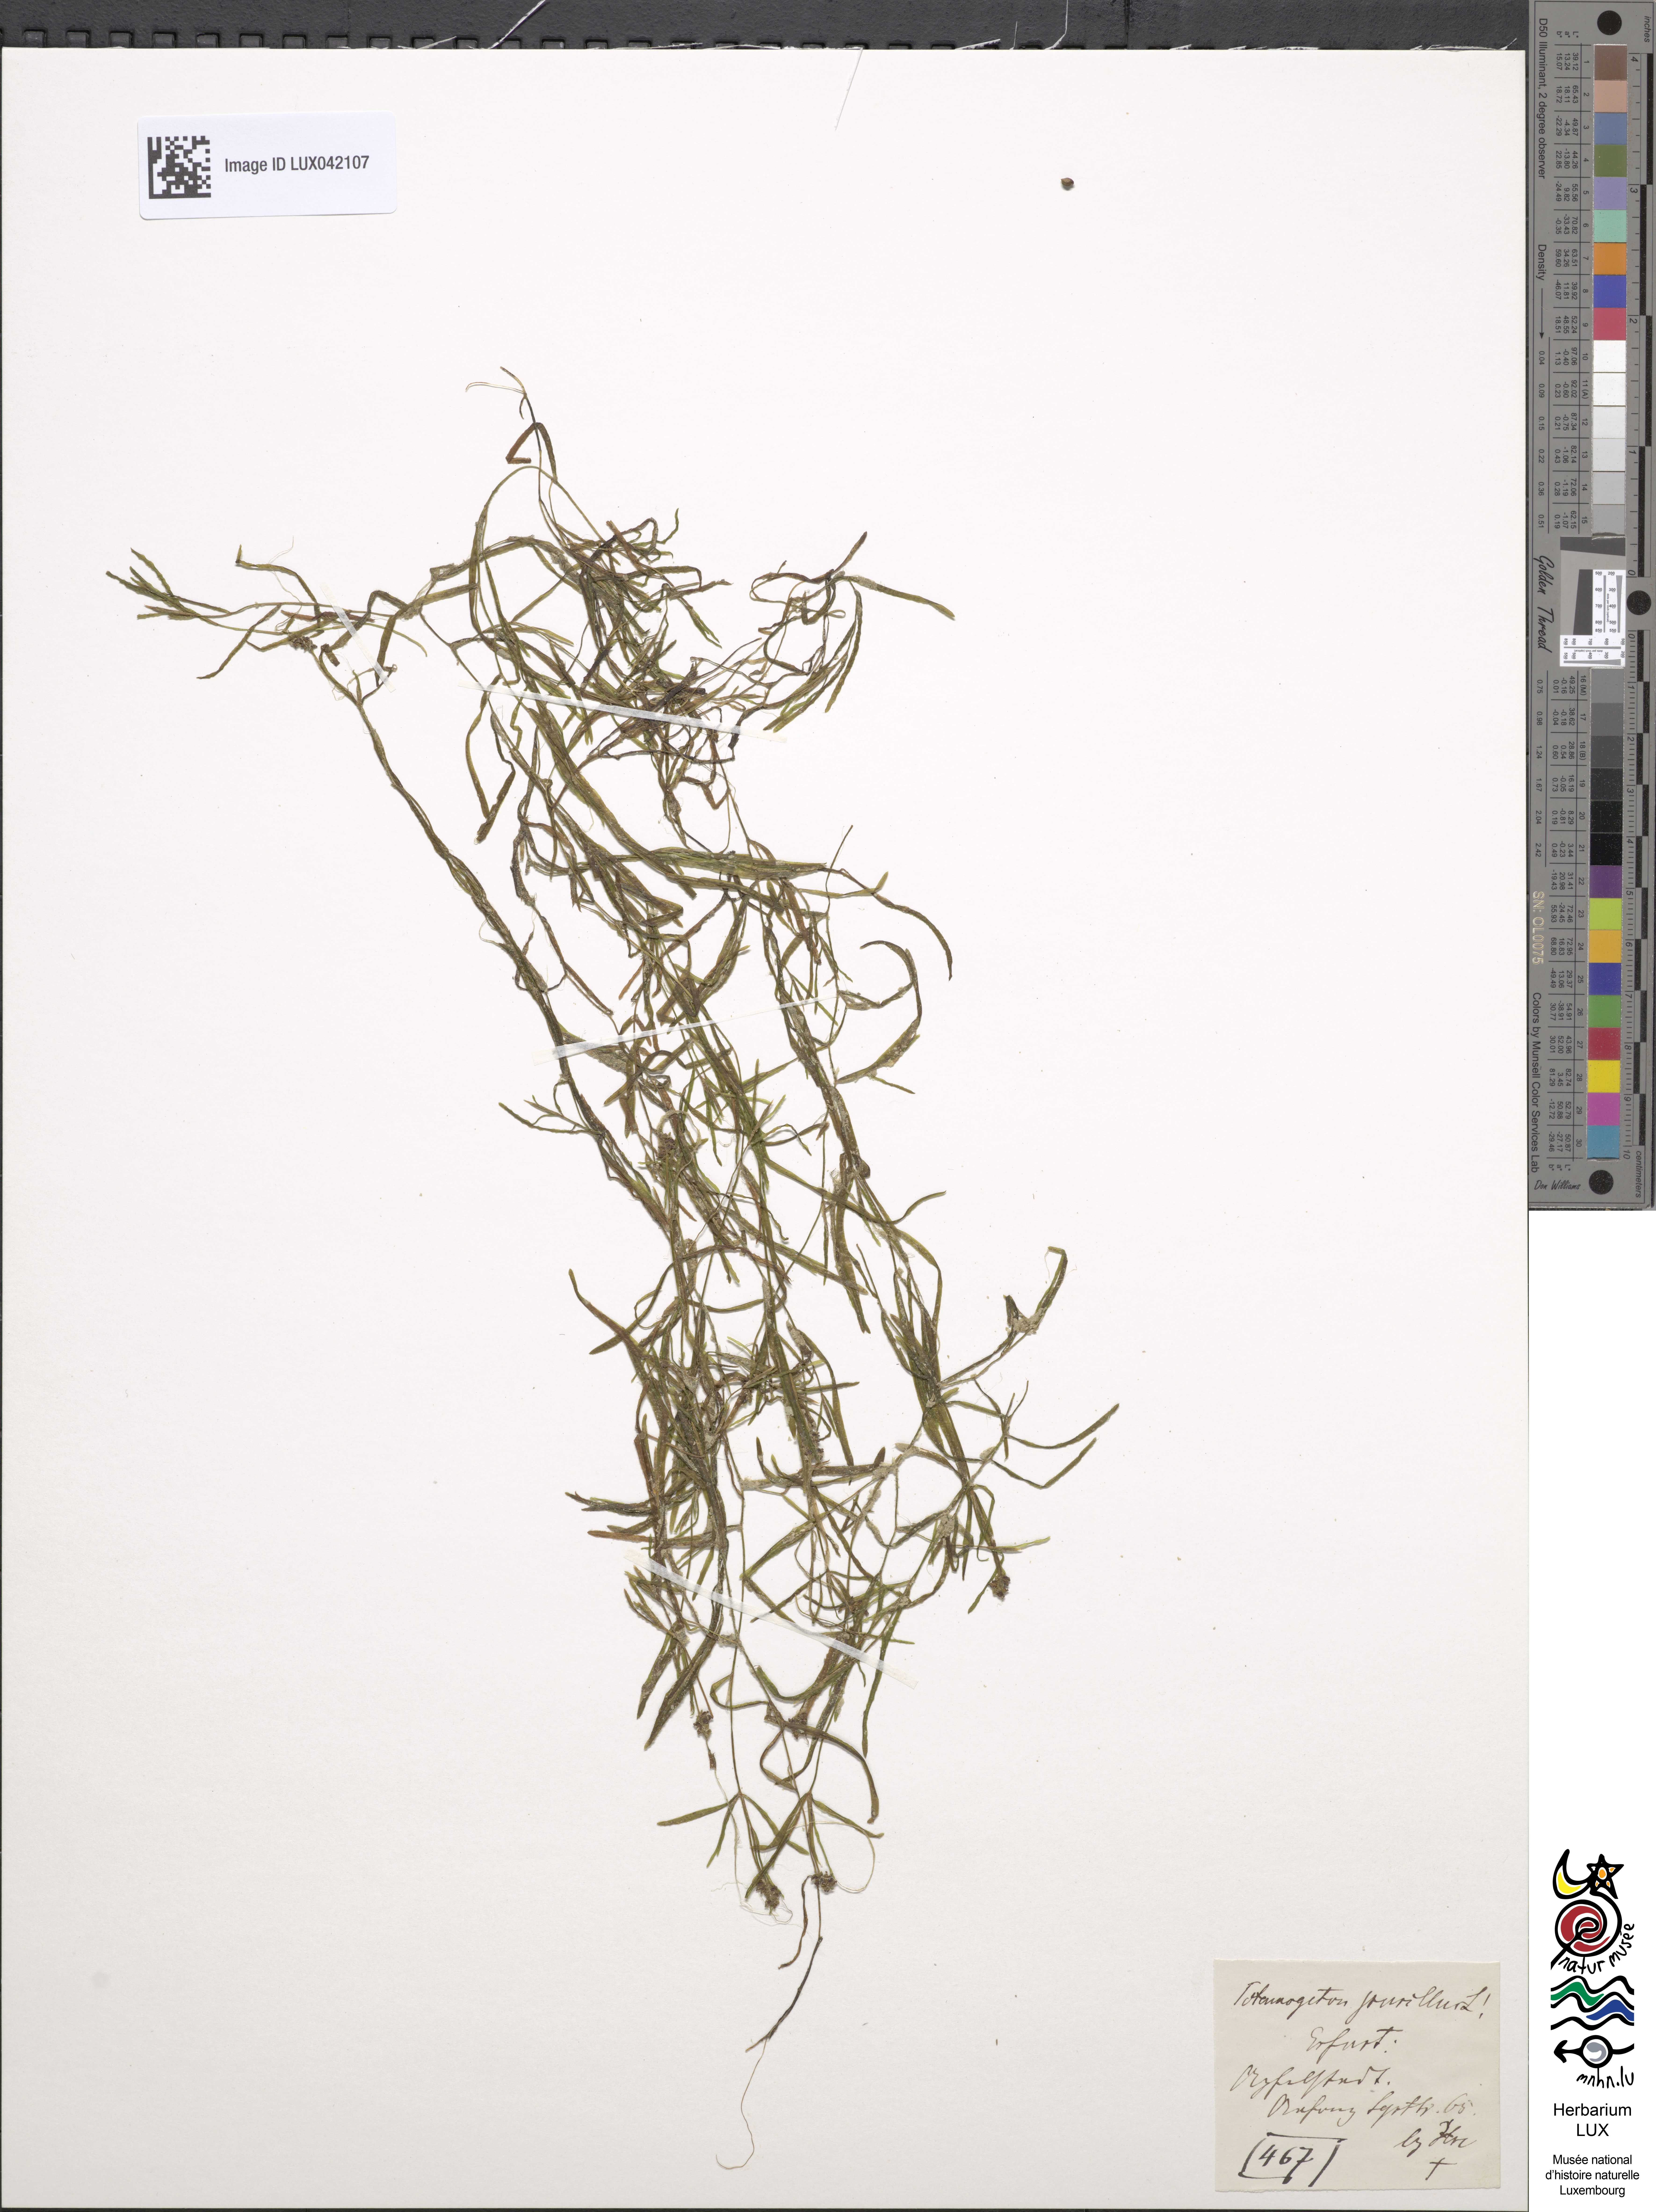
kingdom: Plantae
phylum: Tracheophyta
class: Liliopsida
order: Alismatales
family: Potamogetonaceae
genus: Potamogeton
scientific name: Potamogeton pusillus
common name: Lesser pondweed
